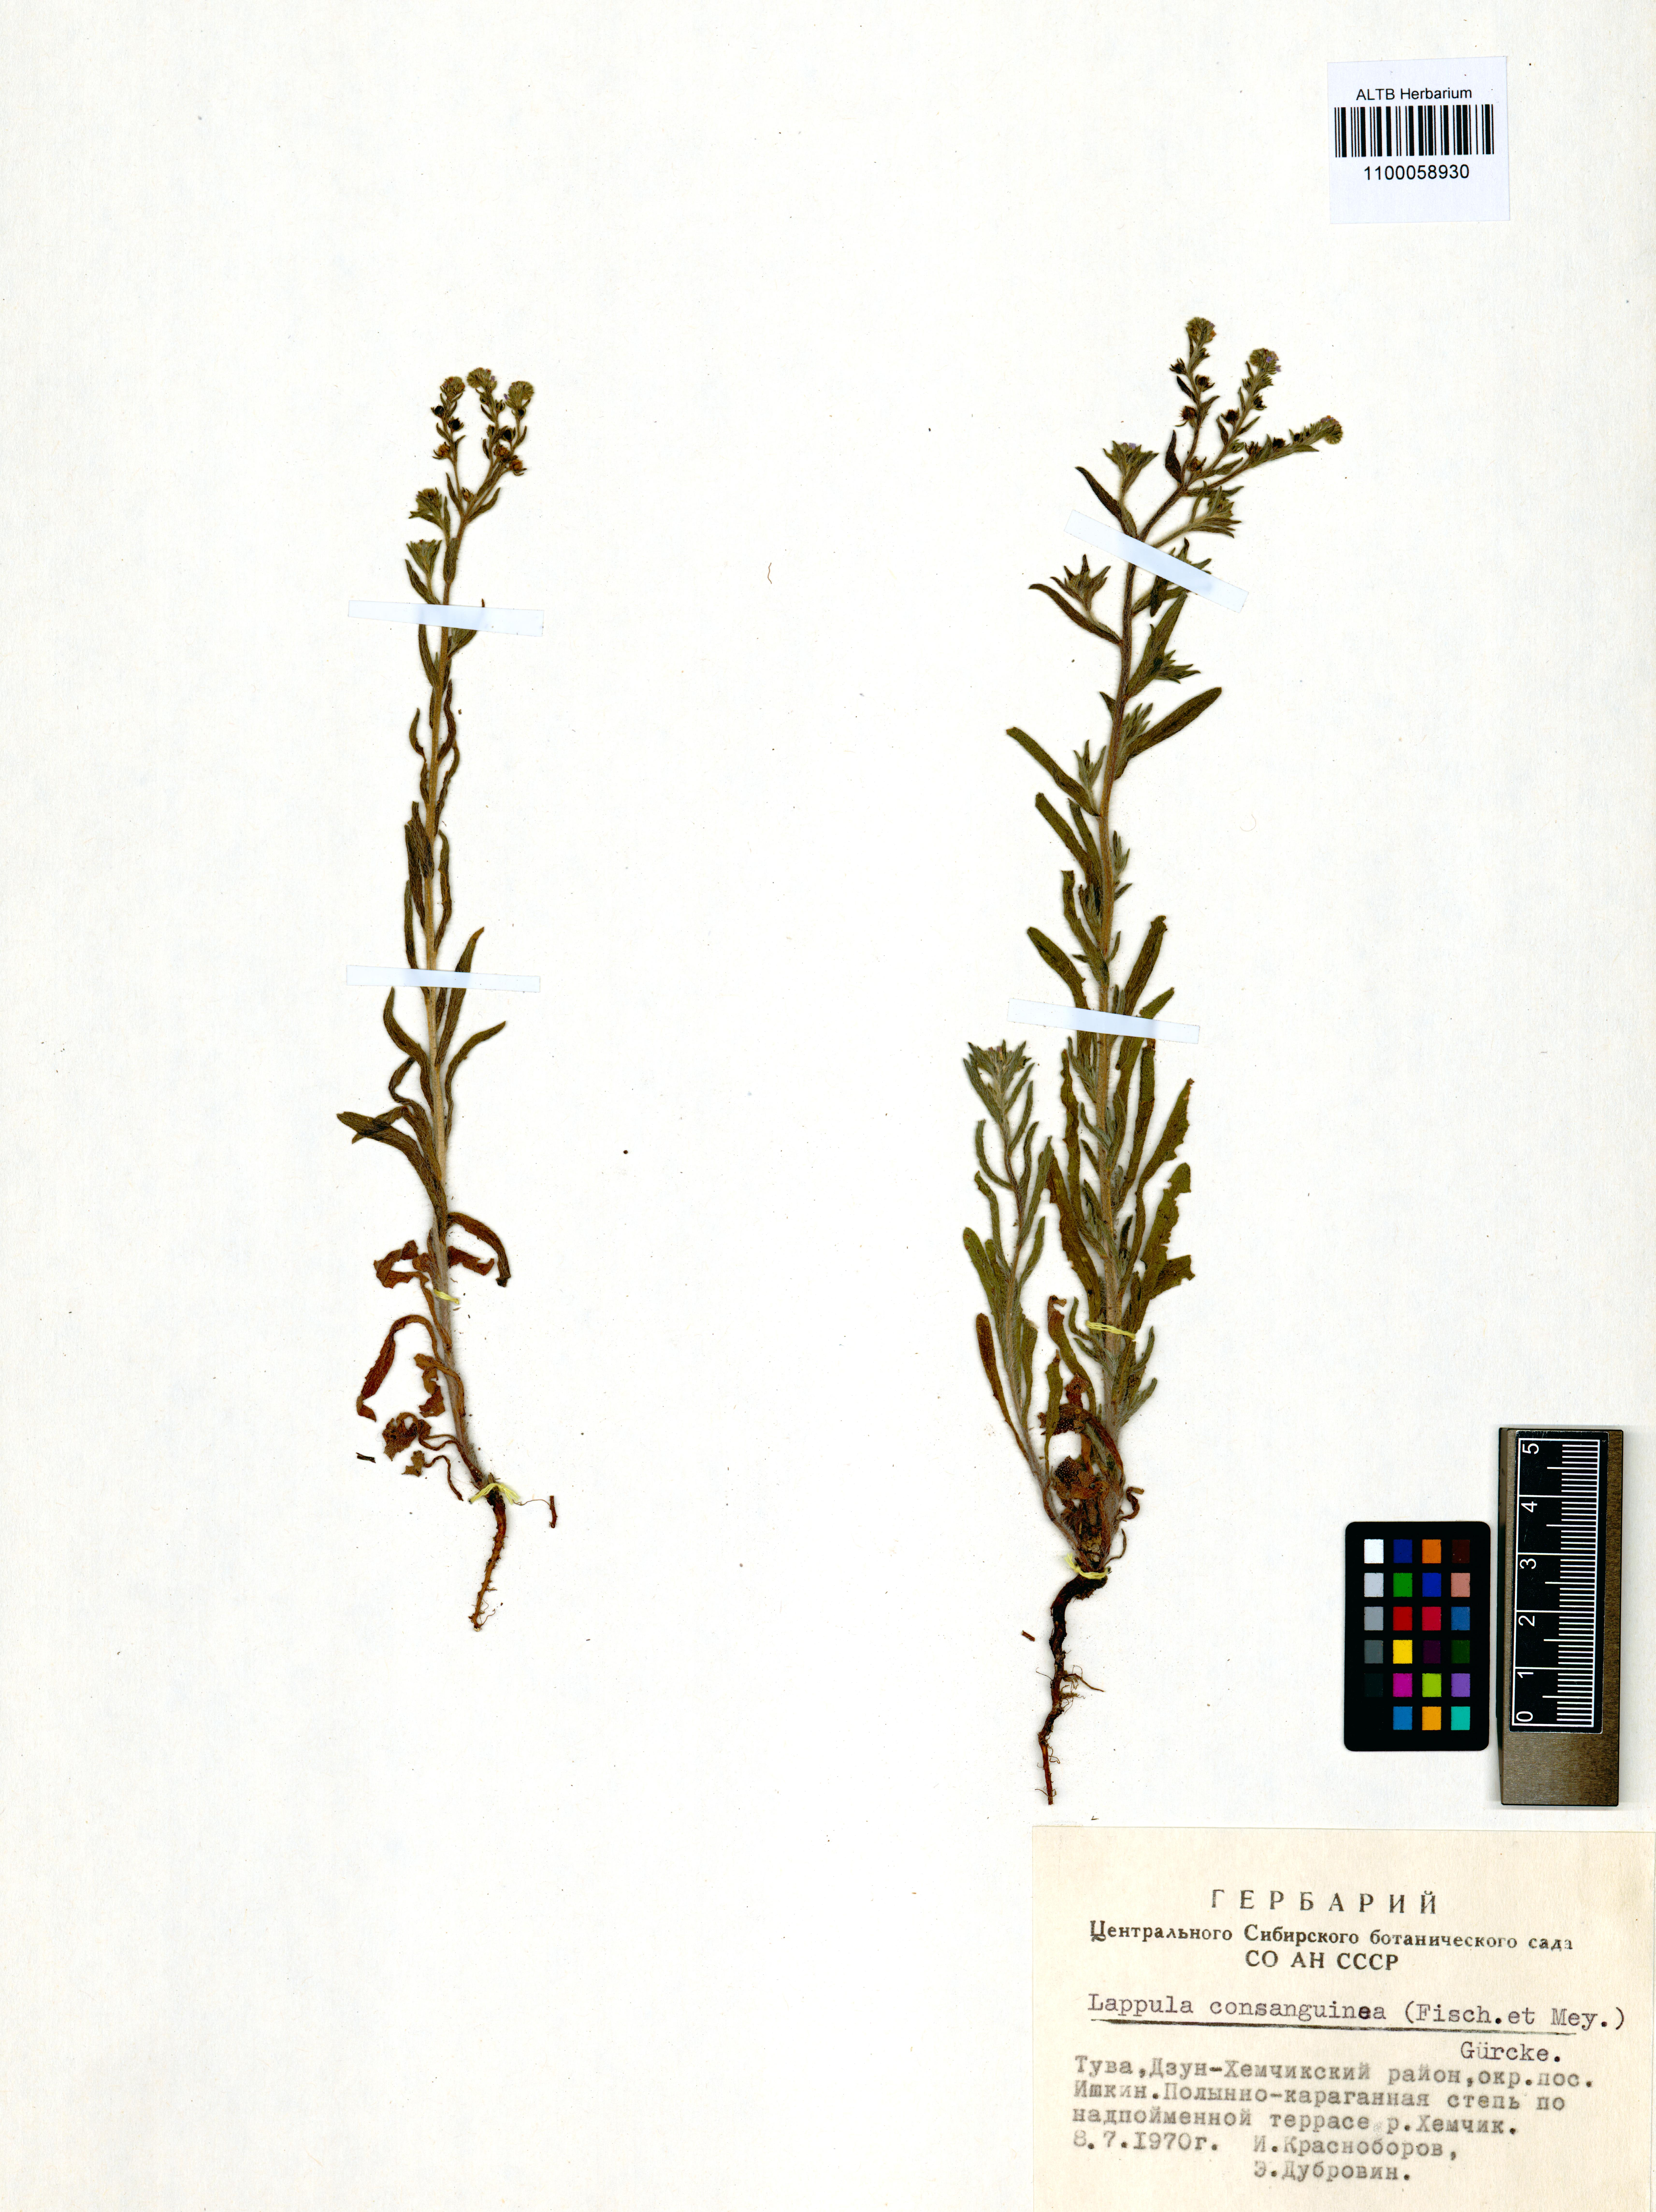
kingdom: Plantae
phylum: Tracheophyta
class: Magnoliopsida
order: Boraginales
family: Boraginaceae
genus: Lappula
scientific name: Lappula squarrosa
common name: European stickseed
